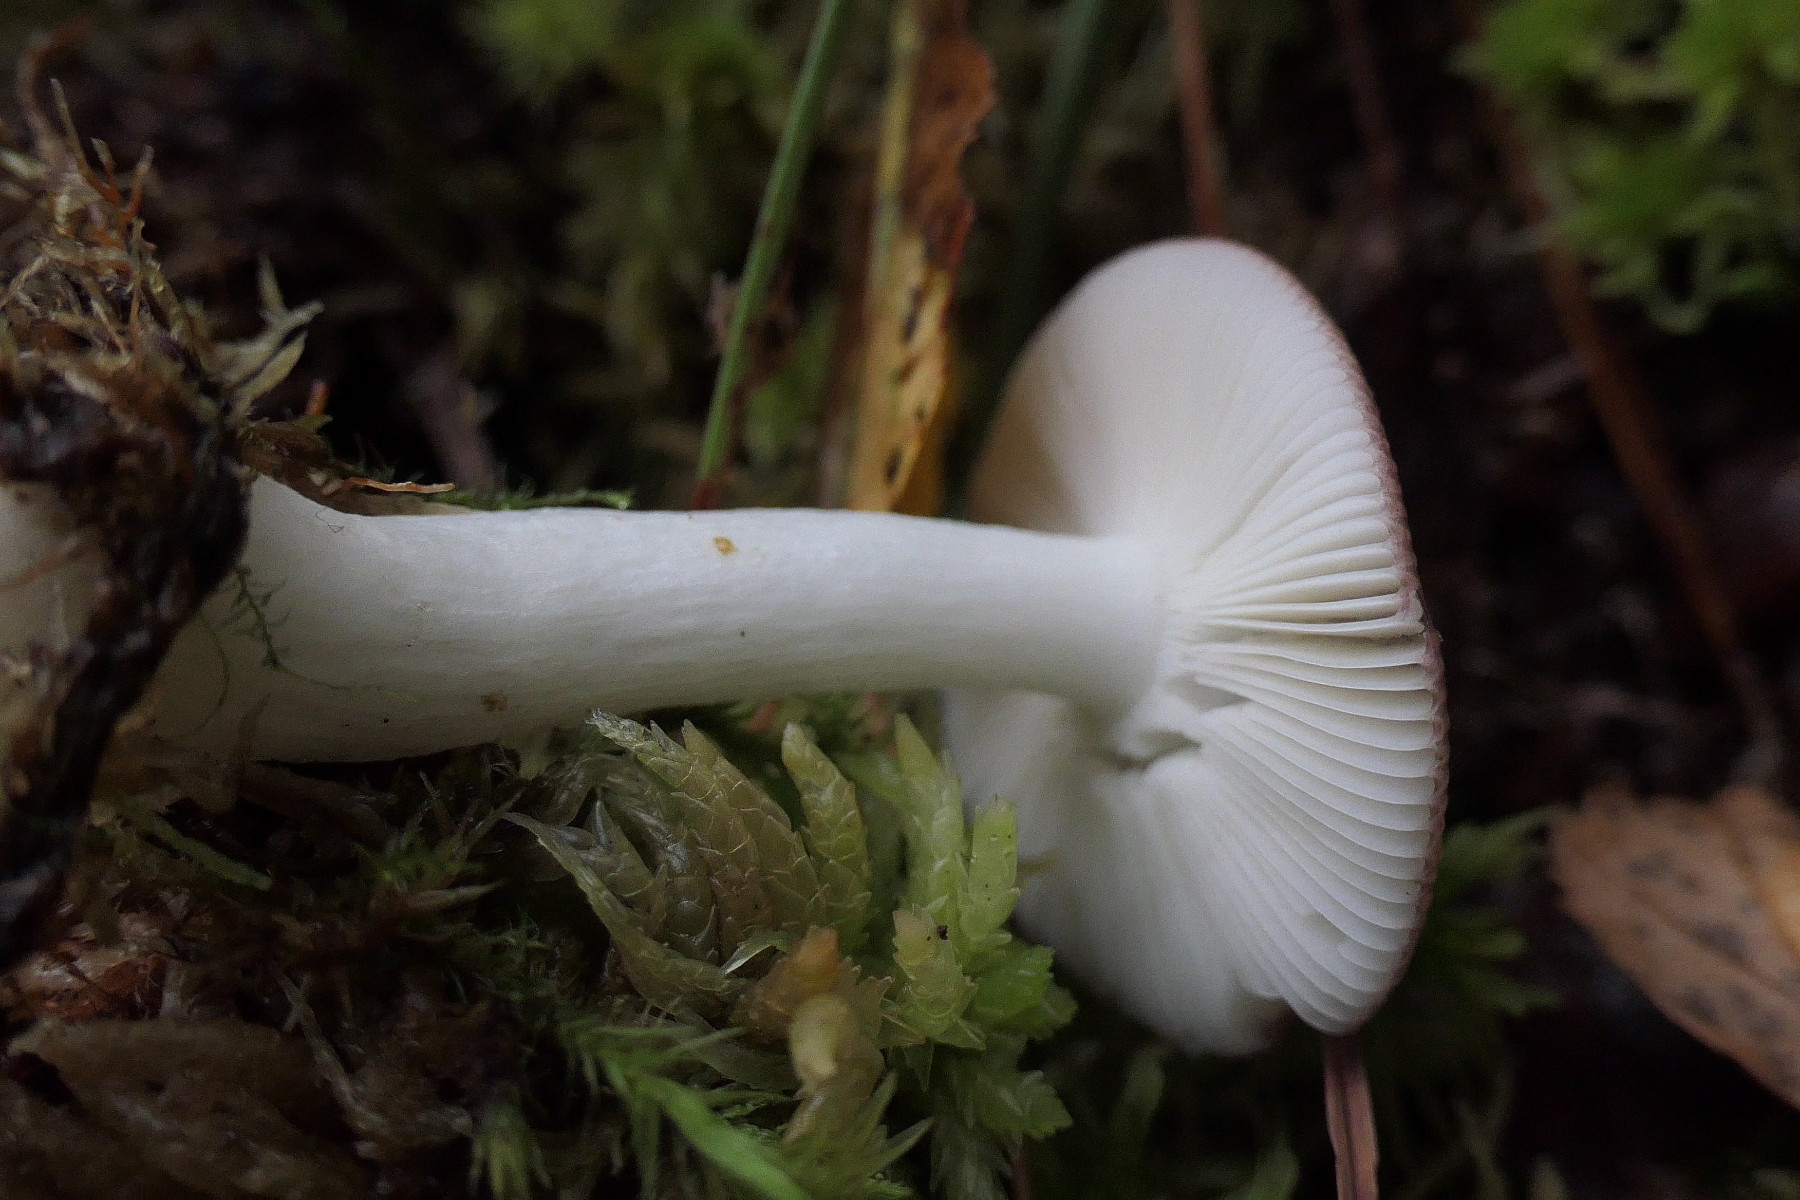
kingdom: Fungi
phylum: Basidiomycota
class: Agaricomycetes
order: Russulales
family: Russulaceae
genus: Russula
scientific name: Russula nitida
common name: året skørhat
